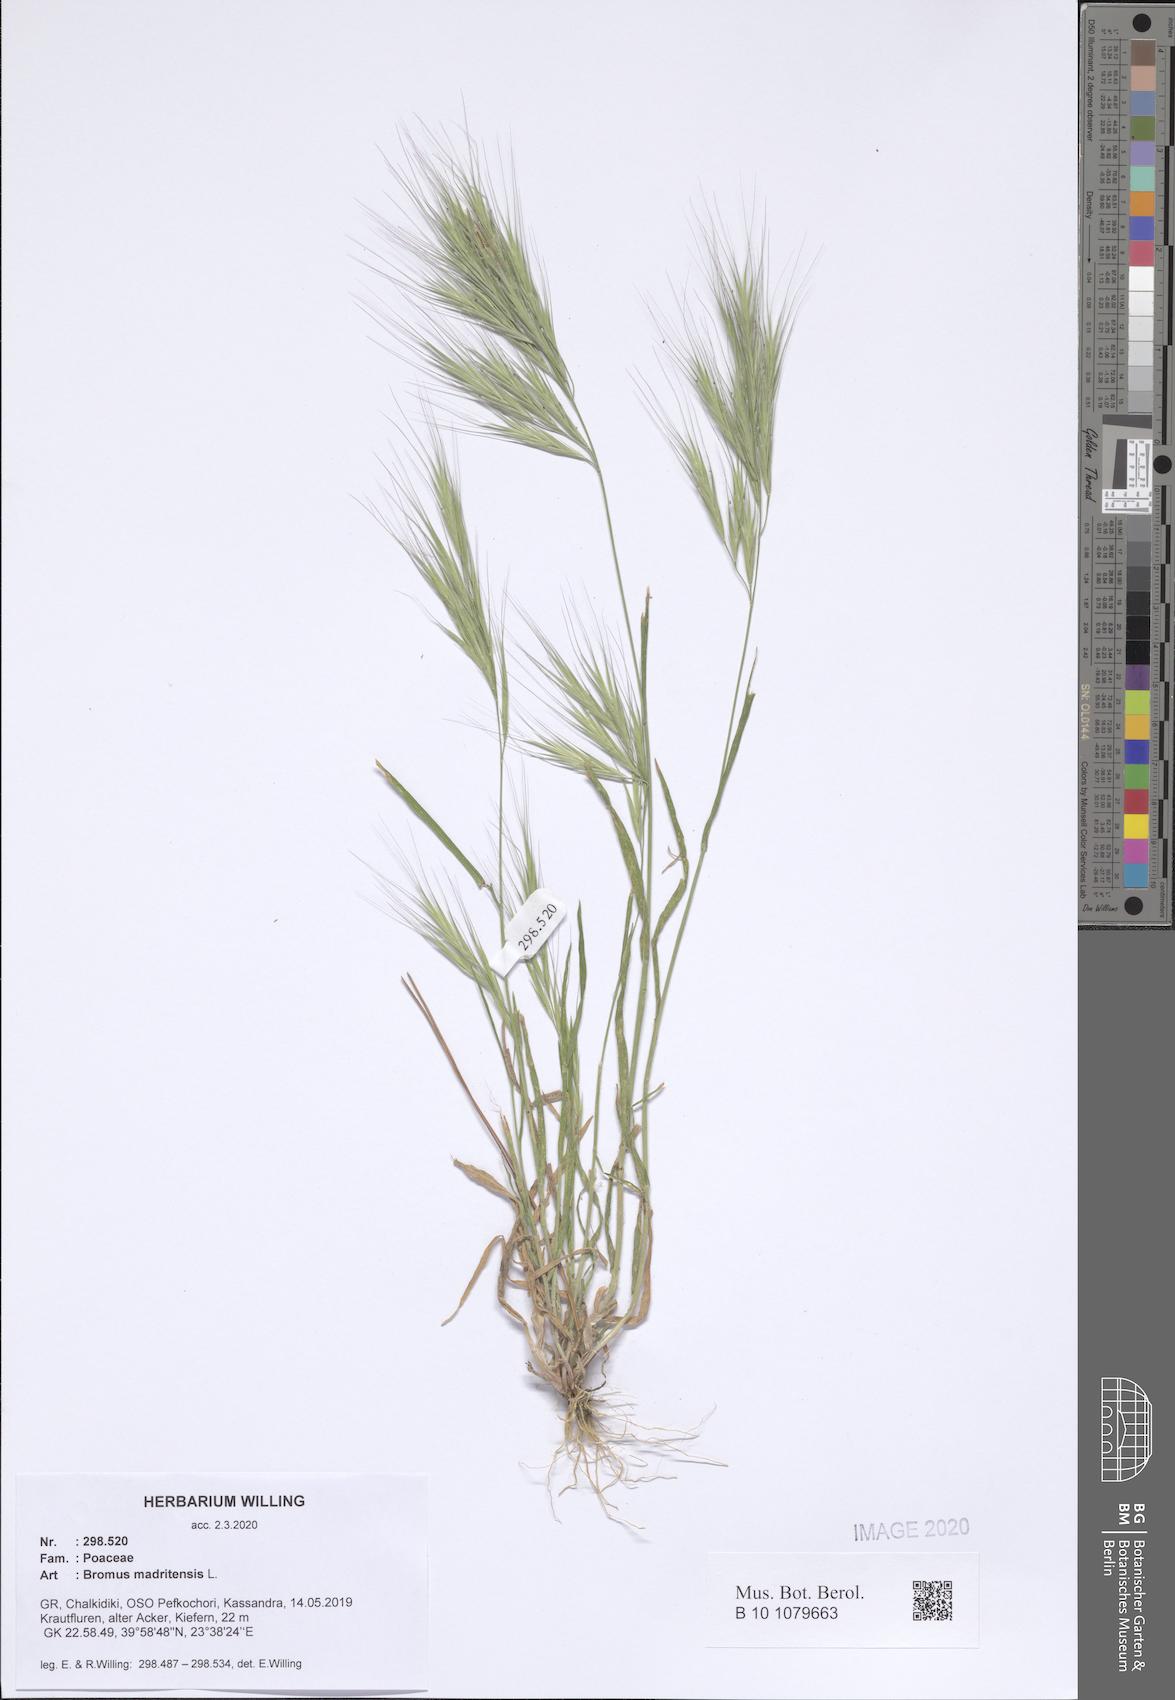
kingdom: Plantae
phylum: Tracheophyta
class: Liliopsida
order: Poales
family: Poaceae
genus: Bromus
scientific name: Bromus madritensis
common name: Compact brome
